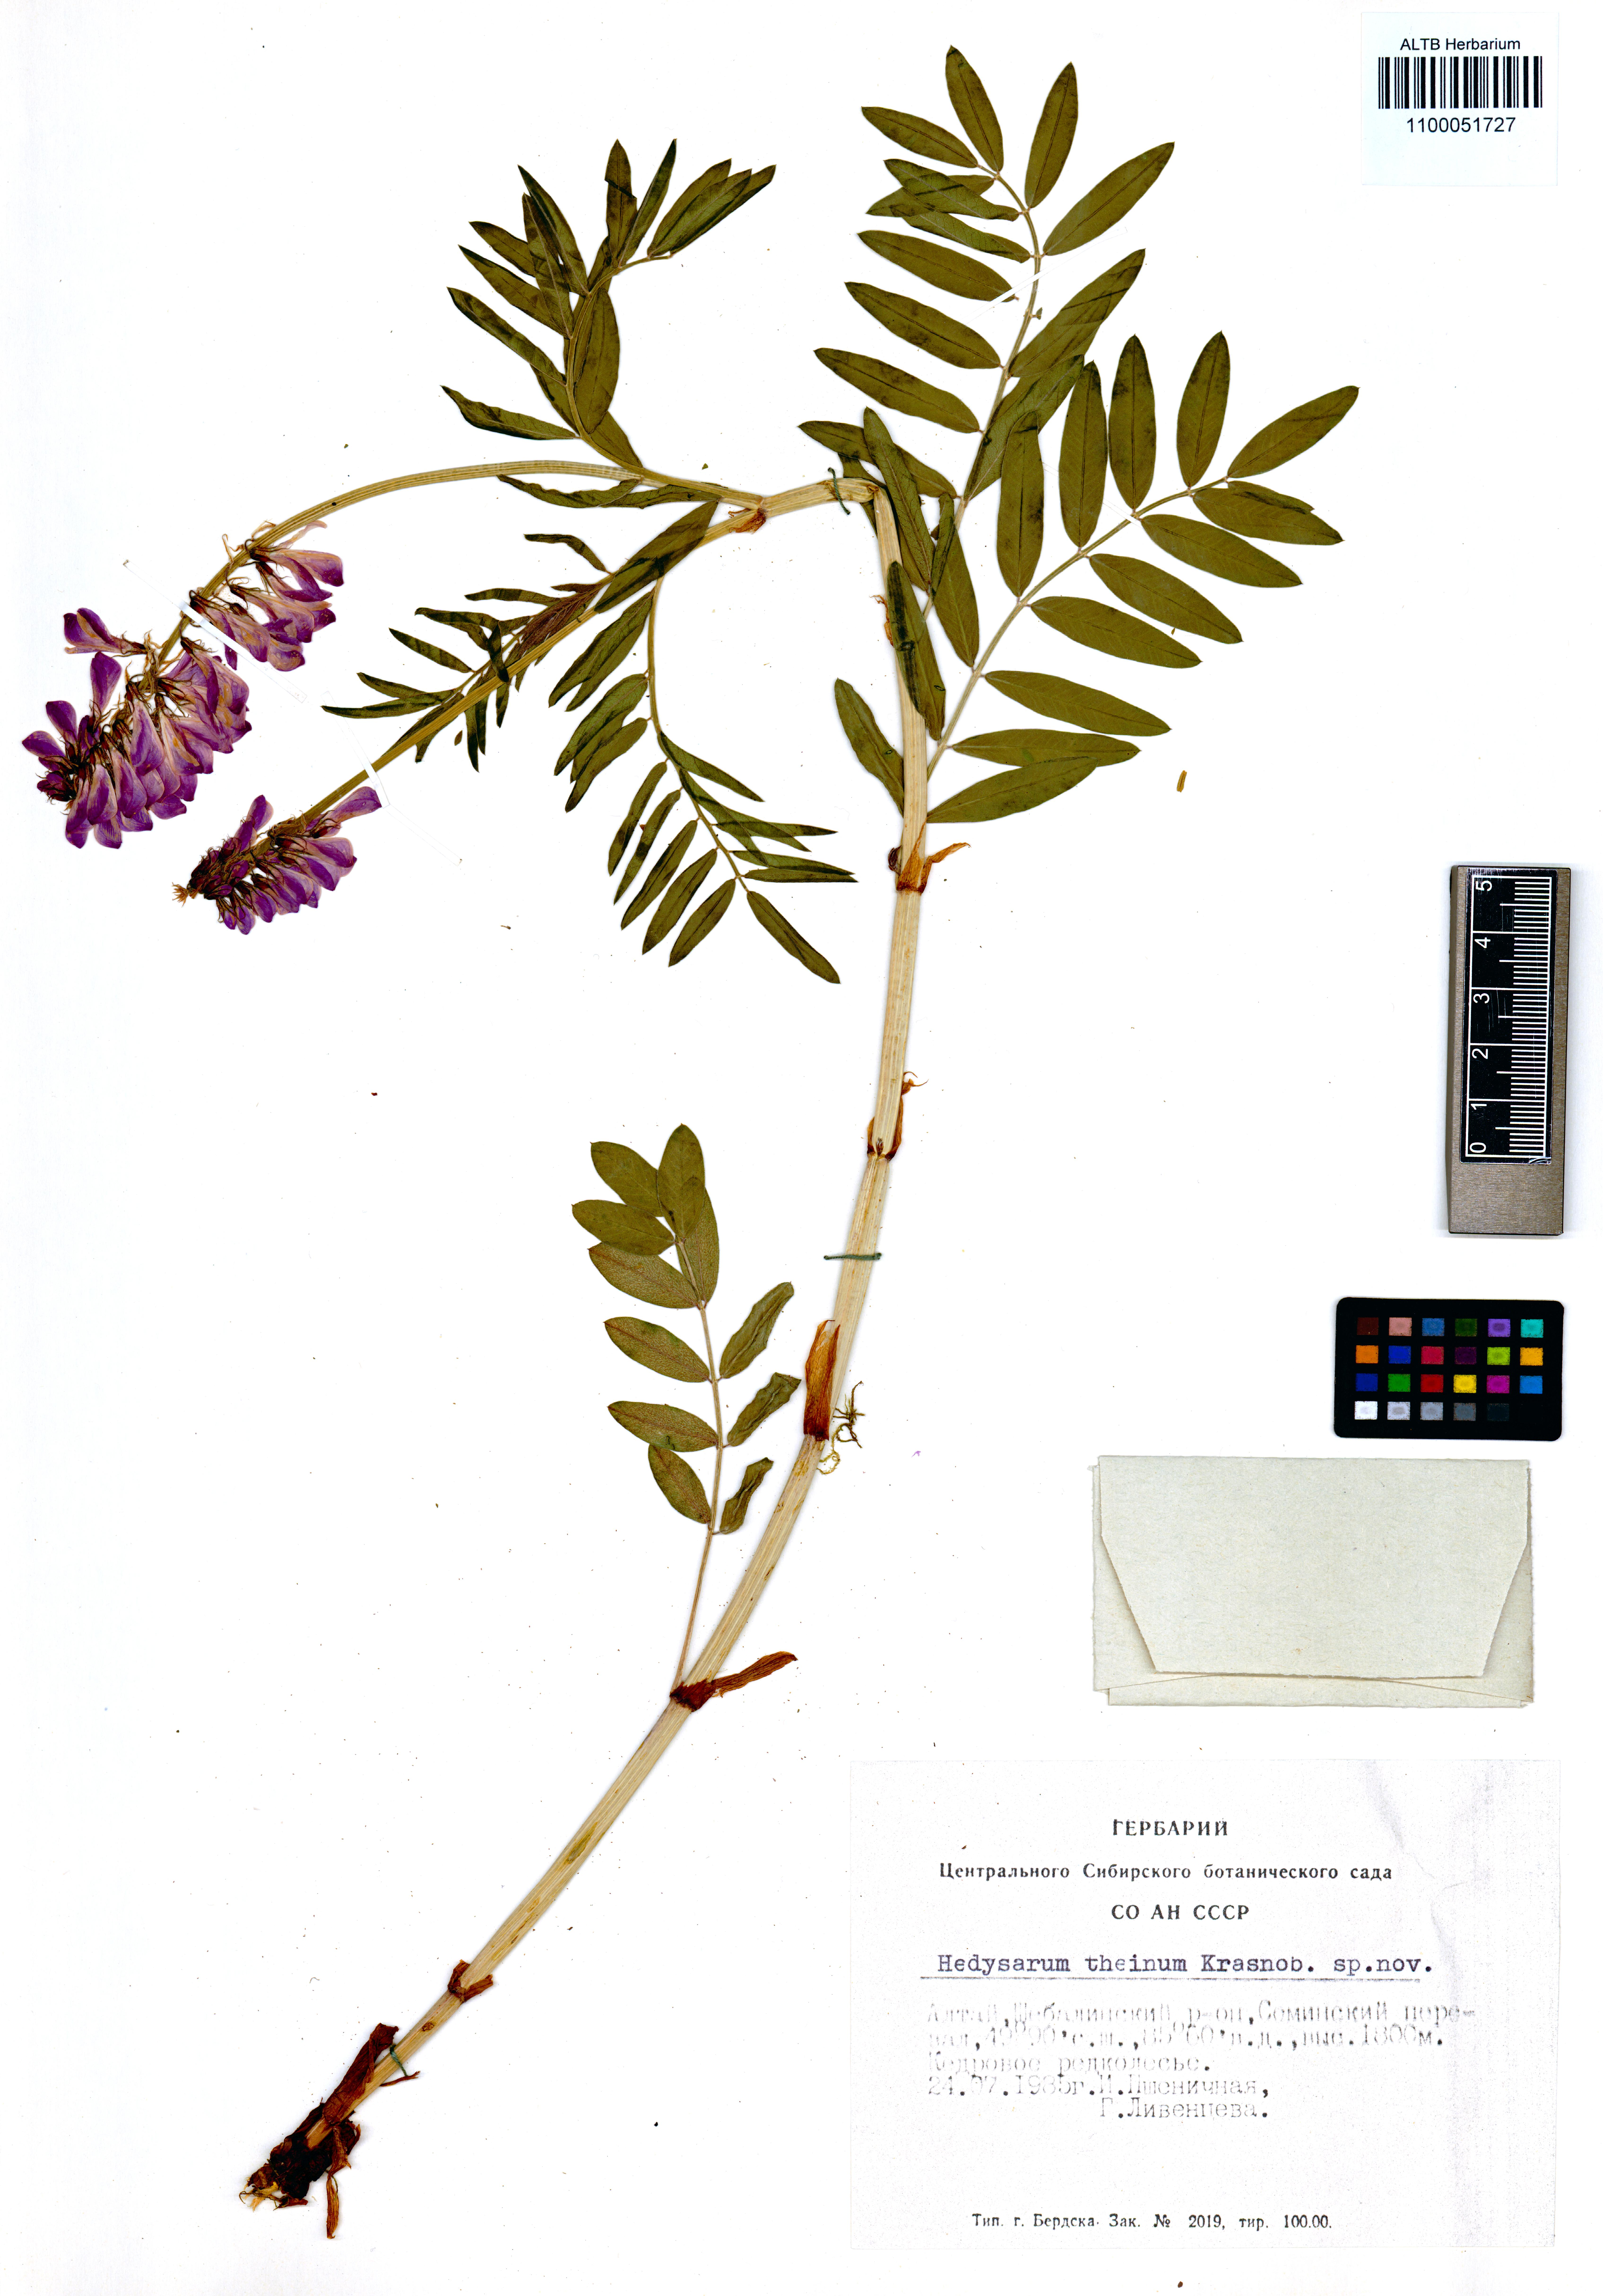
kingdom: Plantae
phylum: Tracheophyta
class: Magnoliopsida
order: Fabales
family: Fabaceae
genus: Hedysarum
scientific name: Hedysarum theinum
